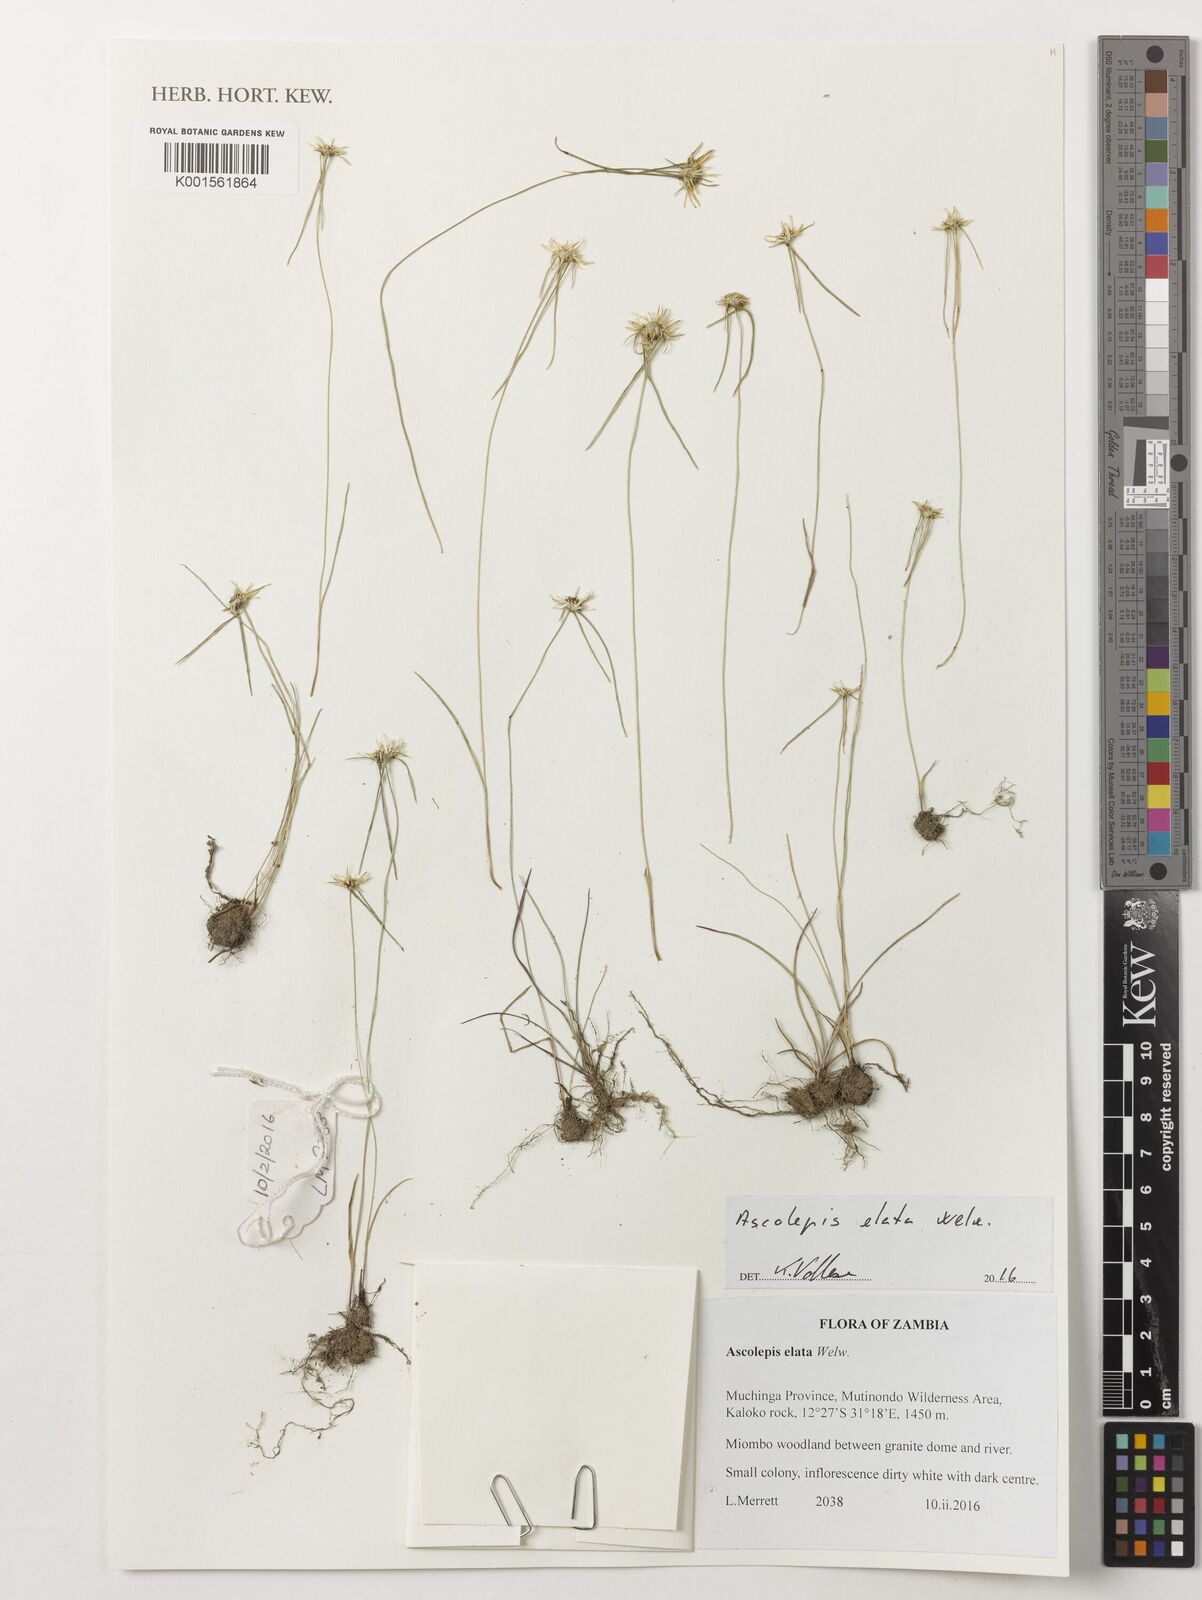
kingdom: Plantae
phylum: Tracheophyta
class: Liliopsida
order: Poales
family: Cyperaceae
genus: Cyperus
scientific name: Cyperus ascocapensis
